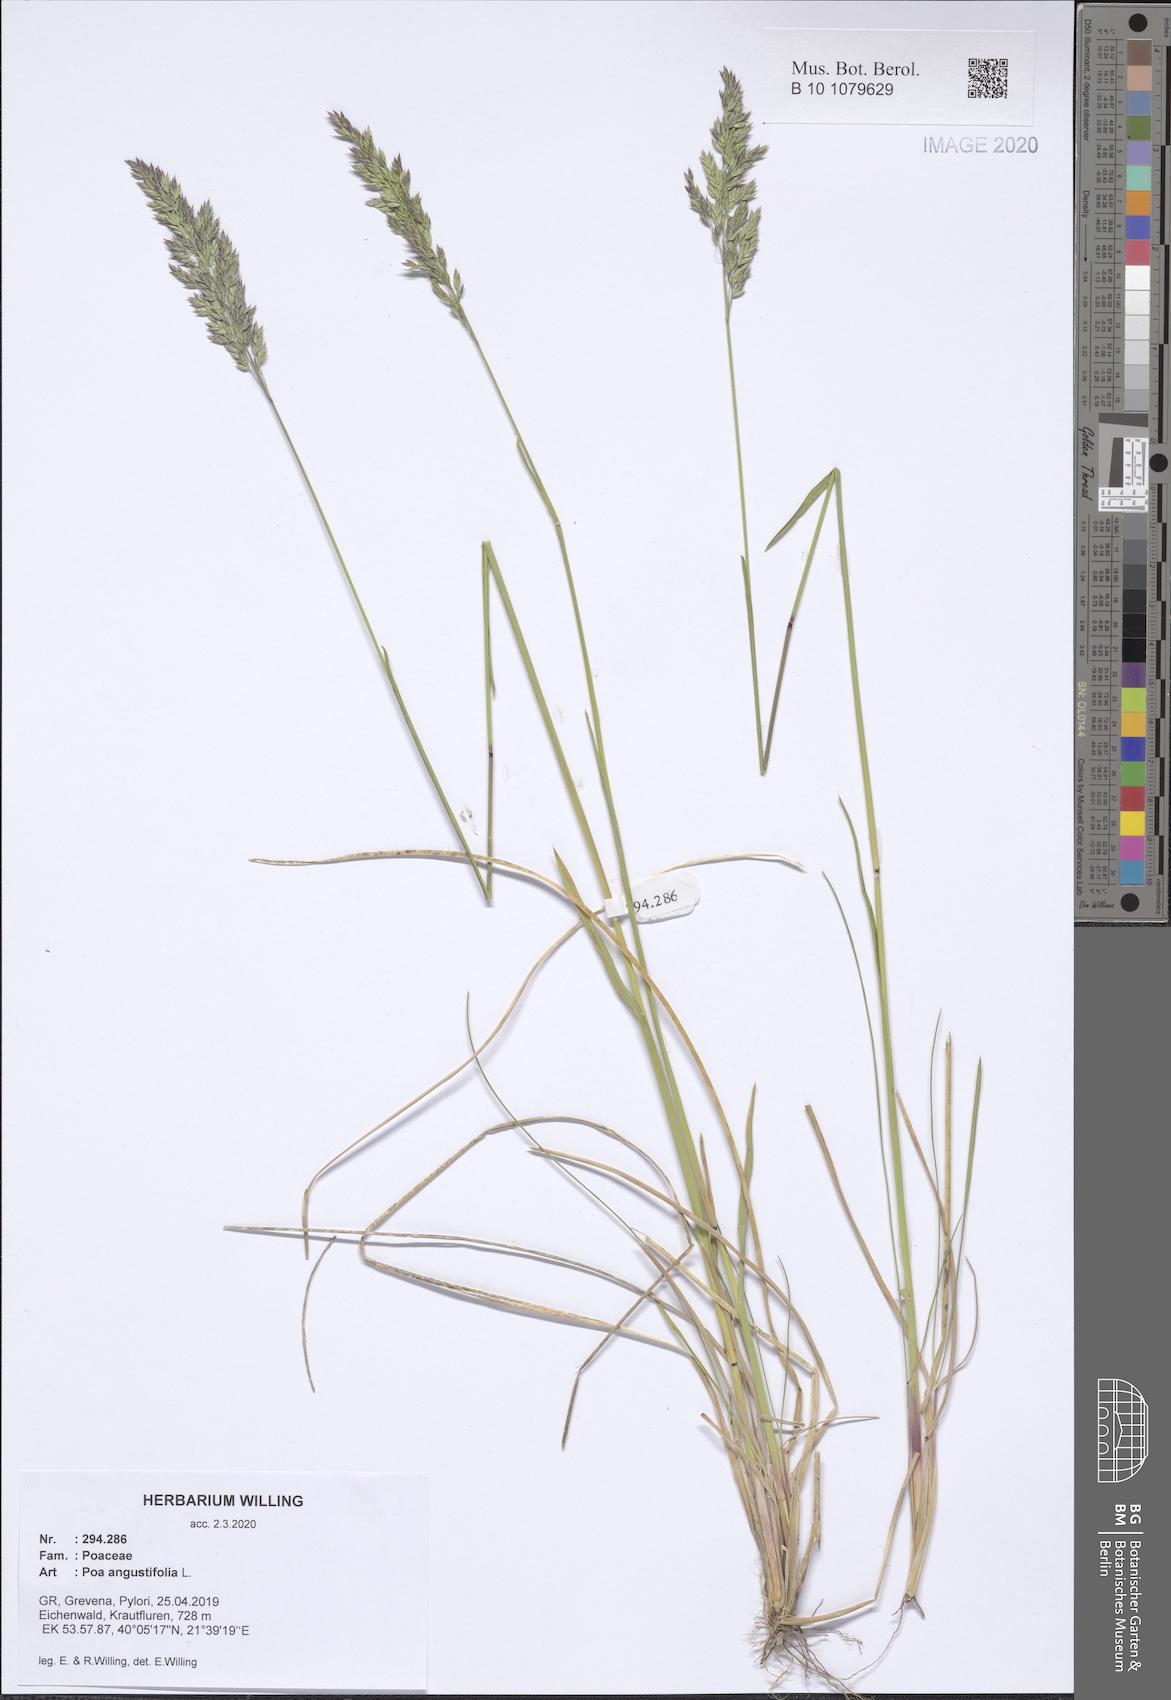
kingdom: Plantae
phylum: Tracheophyta
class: Liliopsida
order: Poales
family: Poaceae
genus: Poa
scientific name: Poa angustifolia
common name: Narrow-leaved meadow-grass
